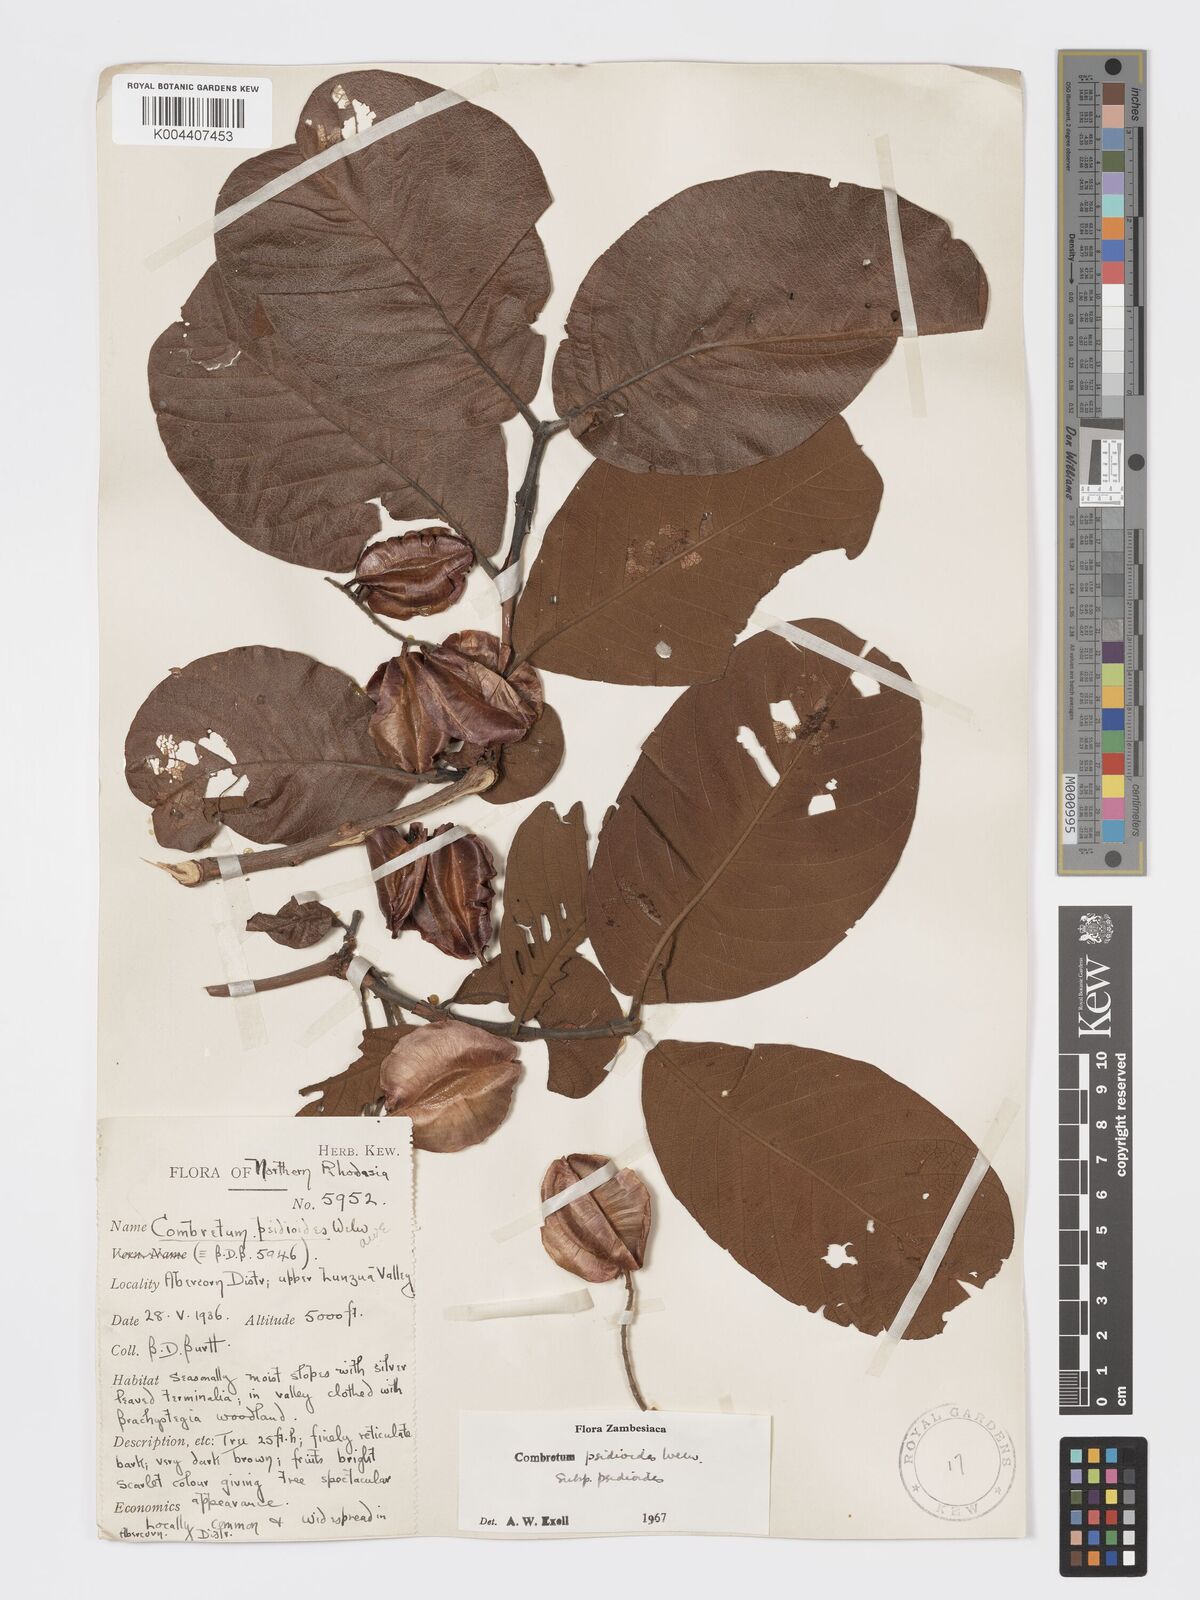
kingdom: Plantae
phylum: Tracheophyta
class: Magnoliopsida
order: Myrtales
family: Combretaceae
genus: Combretum
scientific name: Combretum psidioides
